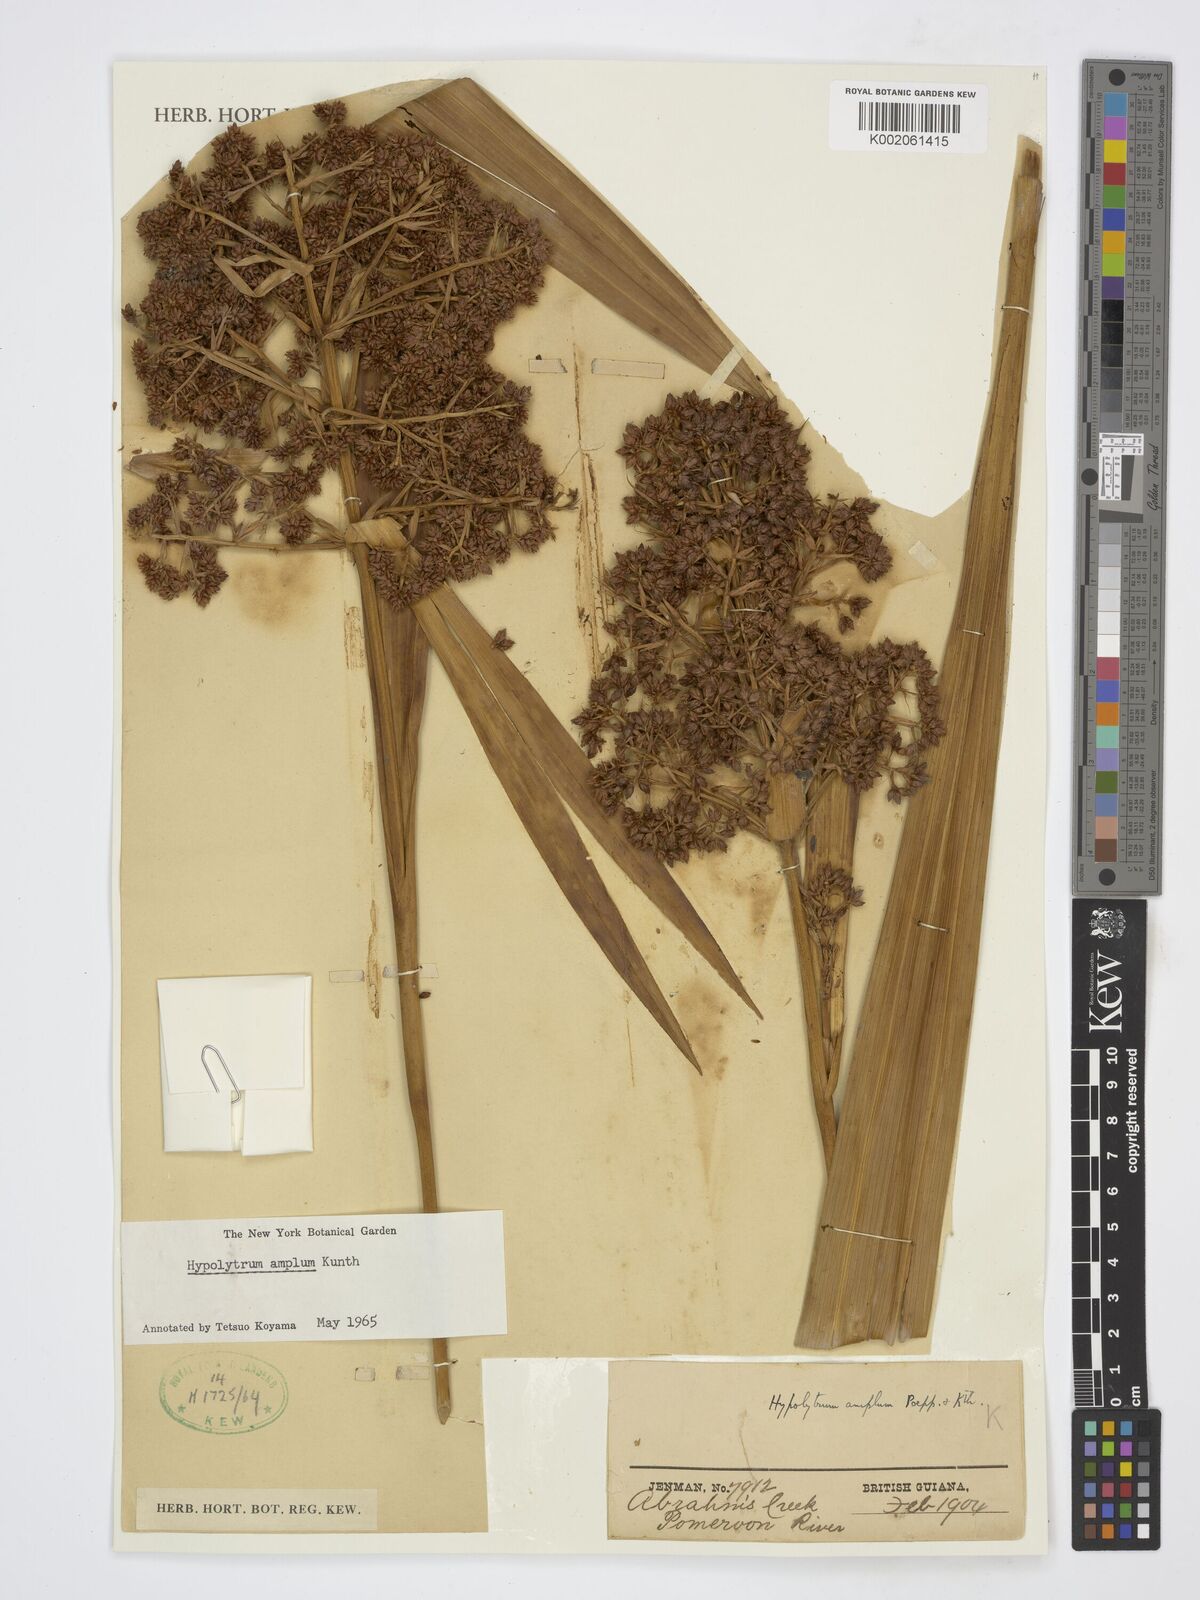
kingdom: Plantae
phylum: Tracheophyta
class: Liliopsida
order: Poales
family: Cyperaceae
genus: Hypolytrum
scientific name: Hypolytrum amplum
